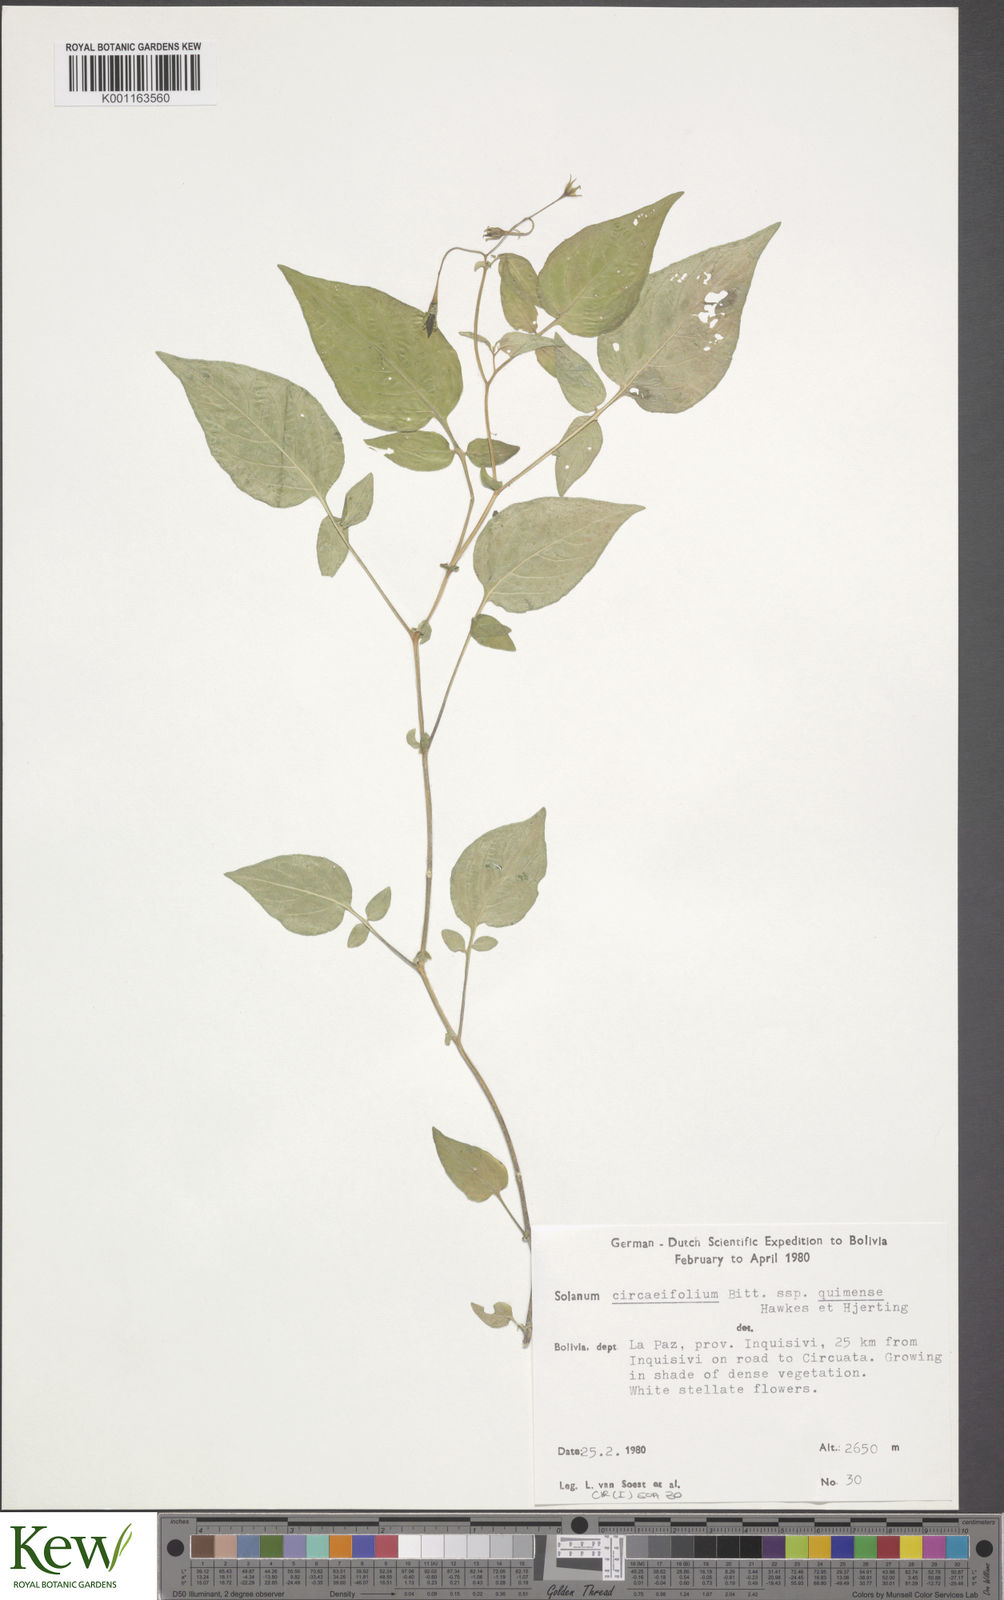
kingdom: Plantae
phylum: Tracheophyta
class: Magnoliopsida
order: Solanales
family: Solanaceae
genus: Solanum
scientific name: Solanum stipuloideum
